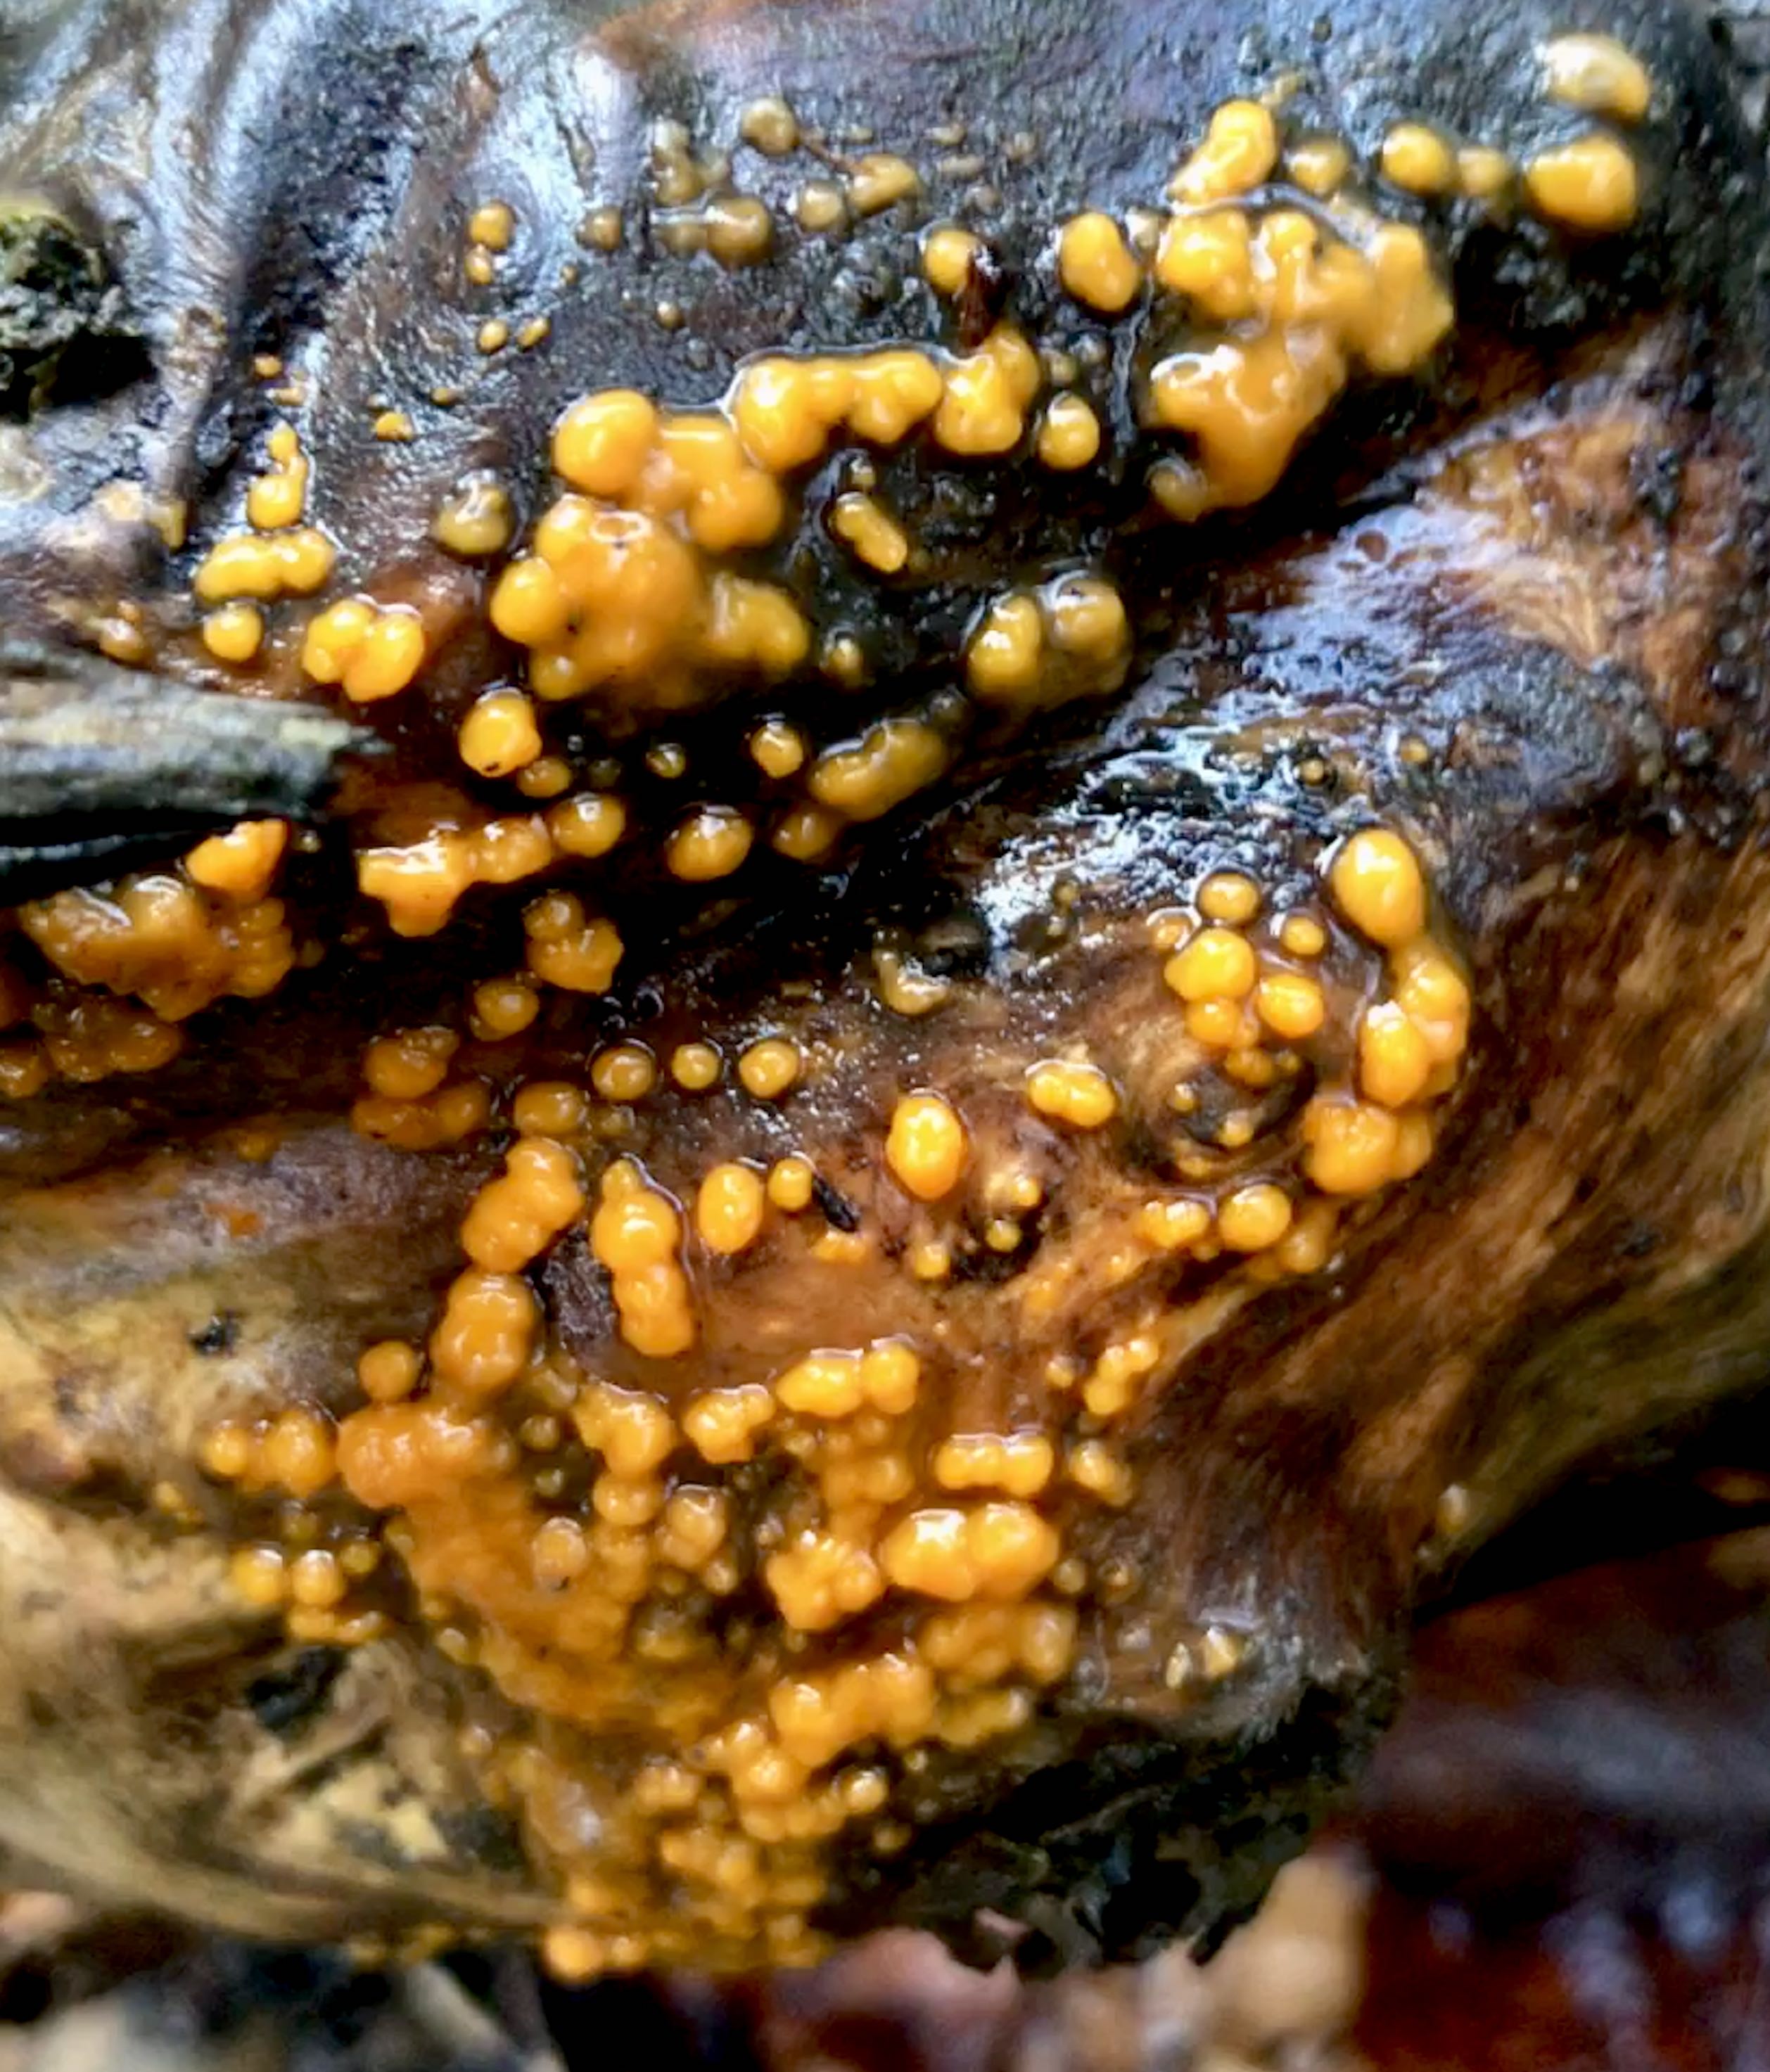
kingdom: Fungi
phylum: Basidiomycota
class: Dacrymycetes
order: Dacrymycetales
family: Dacrymycetaceae
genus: Dacrymyces
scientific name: Dacrymyces stillatus
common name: almindelig tåresvamp
